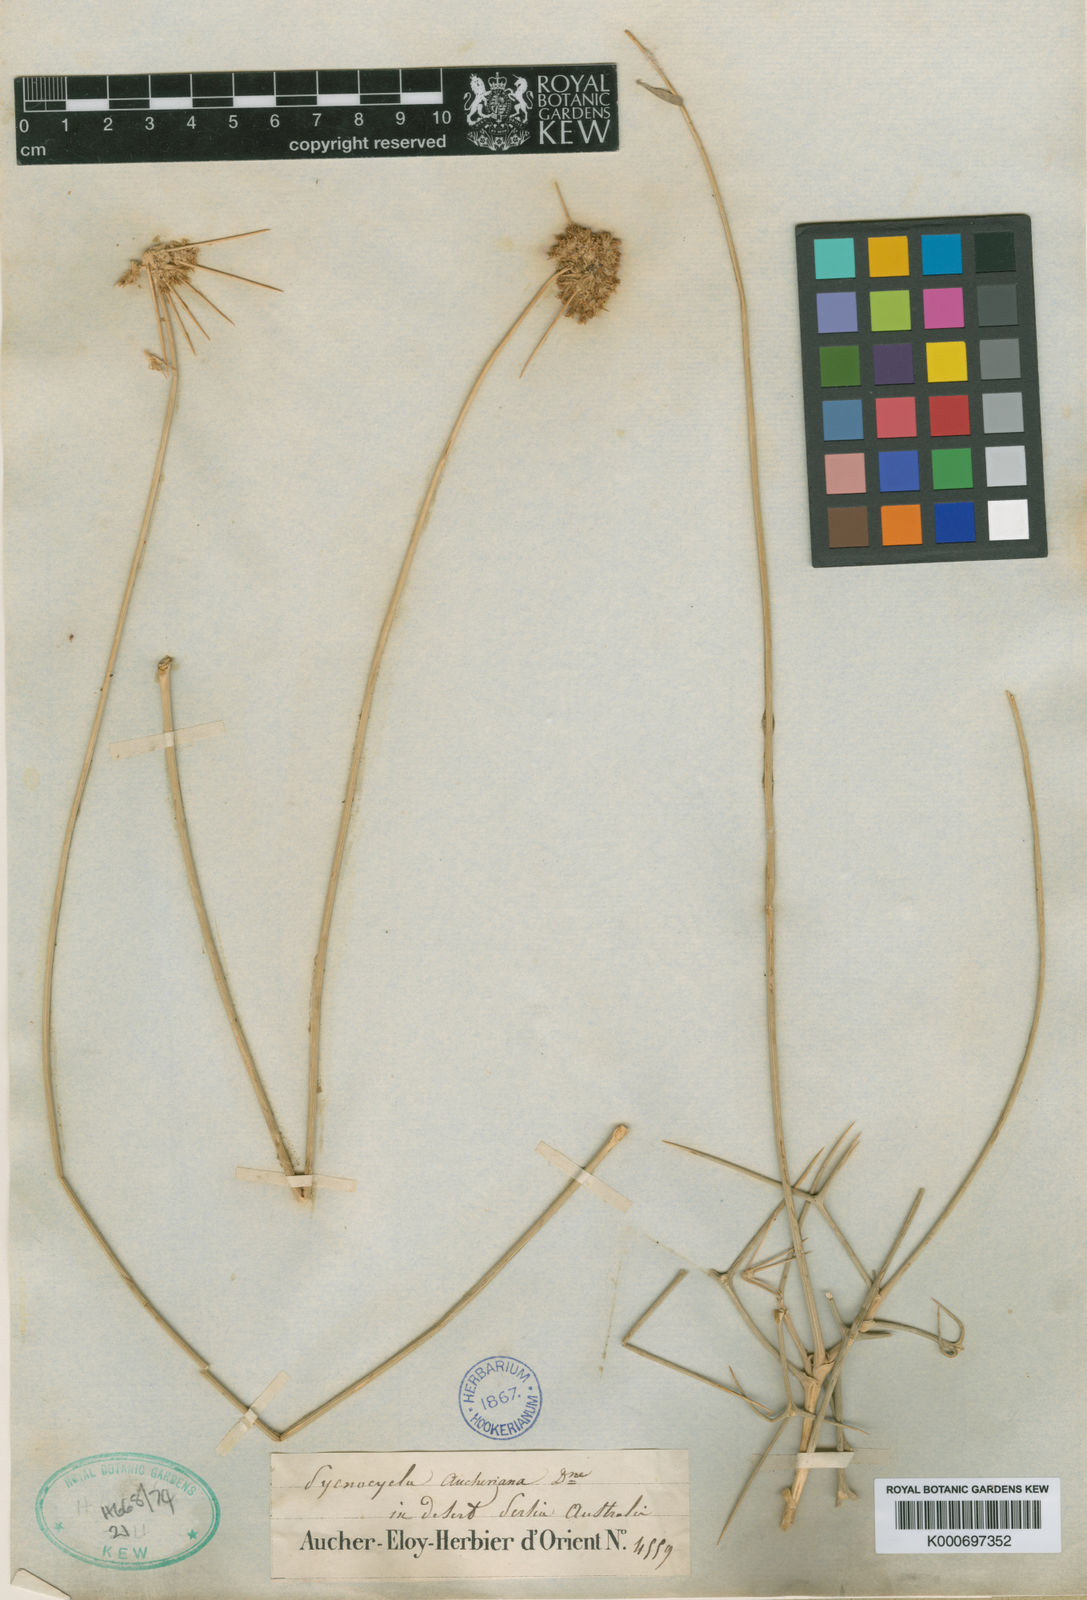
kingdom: Plantae
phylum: Tracheophyta
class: Magnoliopsida
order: Apiales
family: Apiaceae
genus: Pycnocycla
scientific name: Pycnocycla tomentosa
